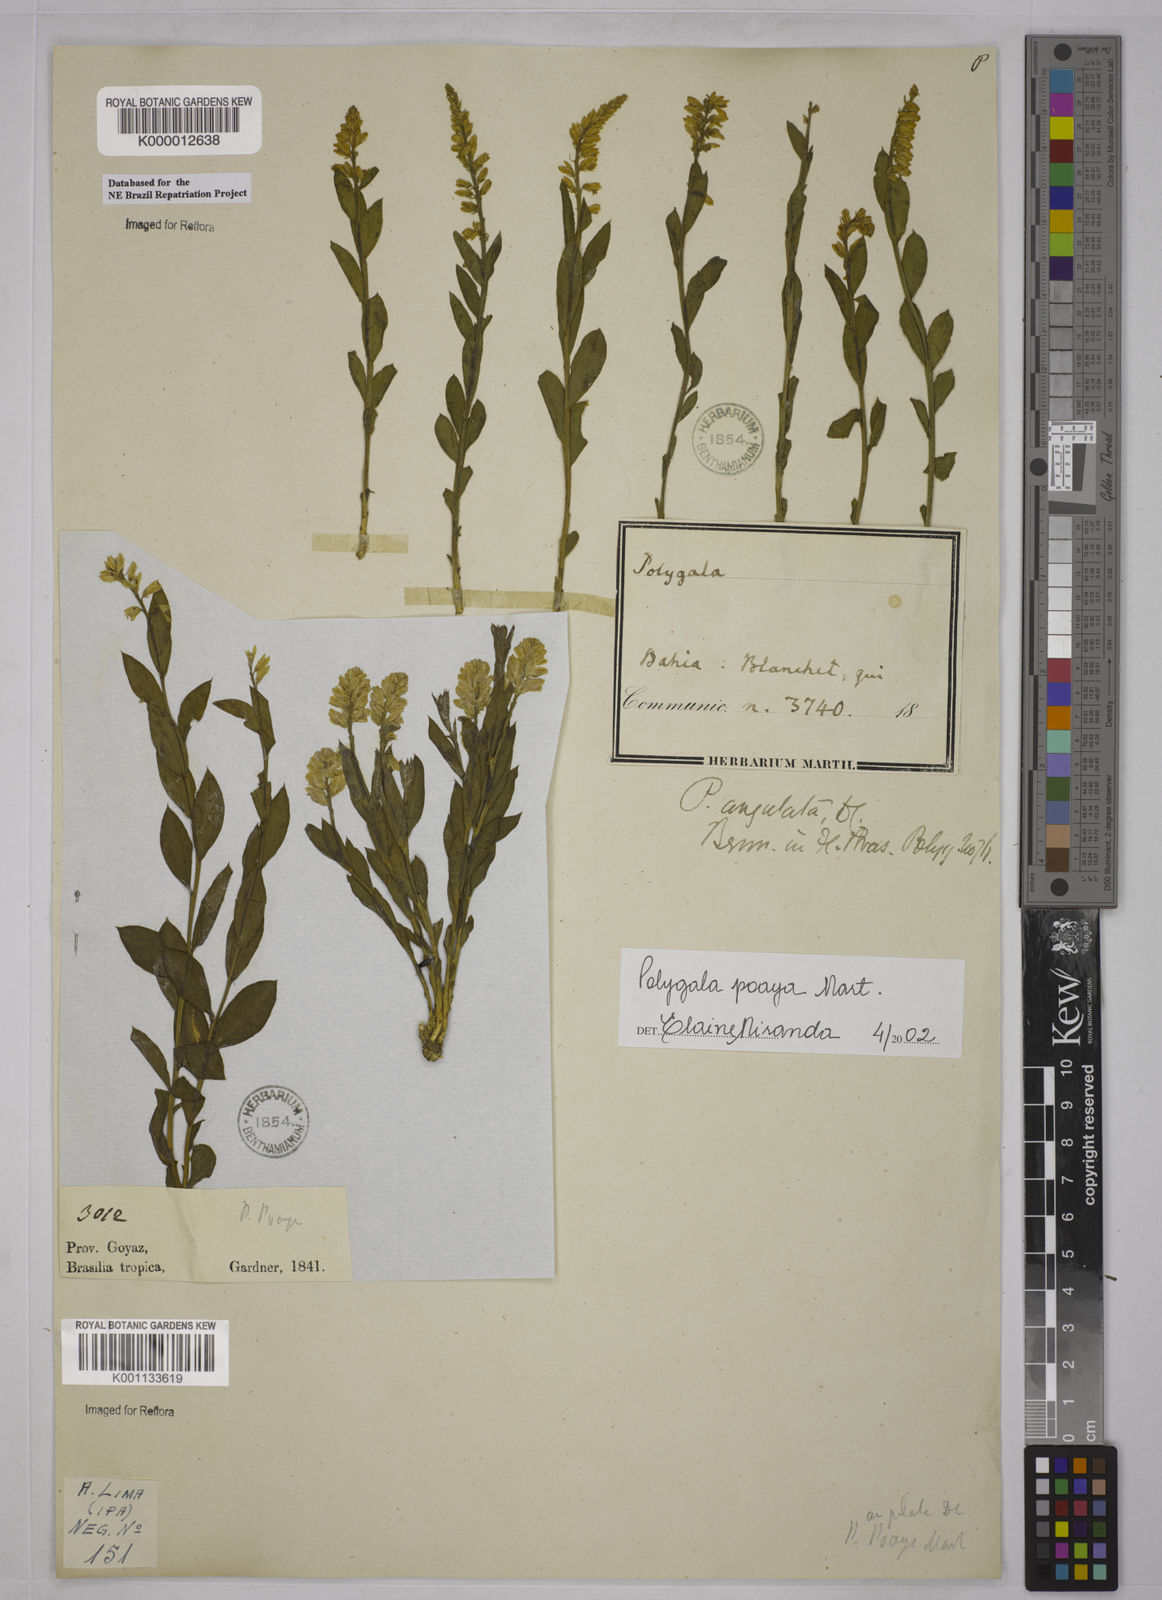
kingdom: Plantae
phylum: Tracheophyta
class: Magnoliopsida
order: Fabales
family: Polygalaceae
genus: Polygala
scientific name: Polygala poaya
